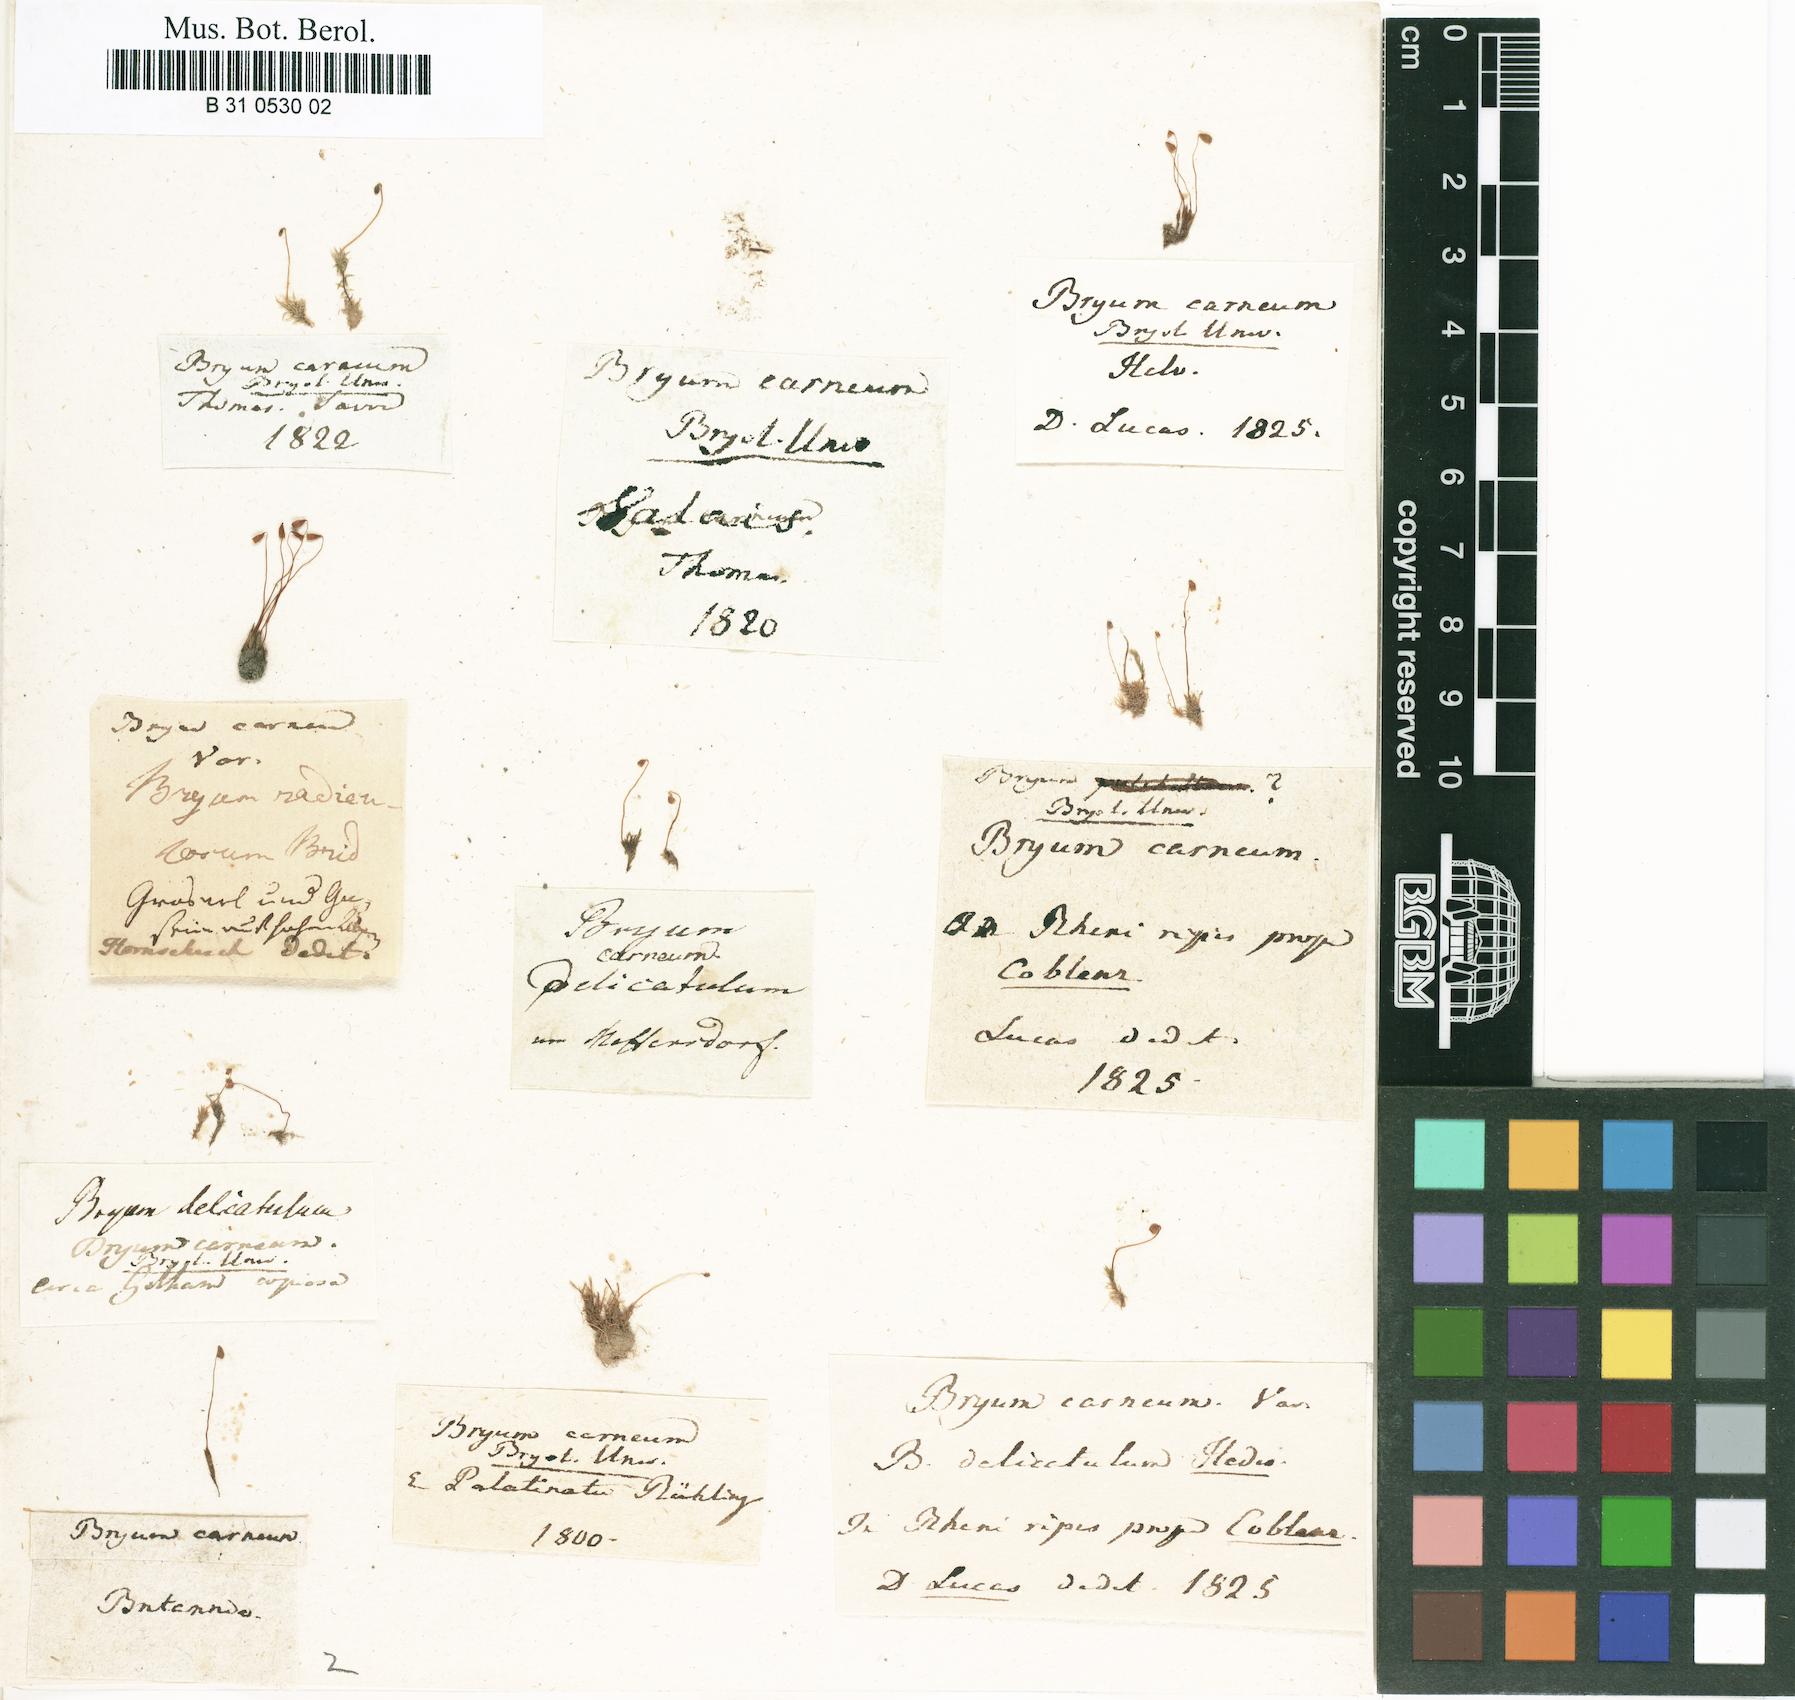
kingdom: Plantae
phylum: Bryophyta
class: Bryopsida
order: Bryales
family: Mniaceae
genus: Pohlia
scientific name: Pohlia melanodon
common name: Black-toothed nodding moss
